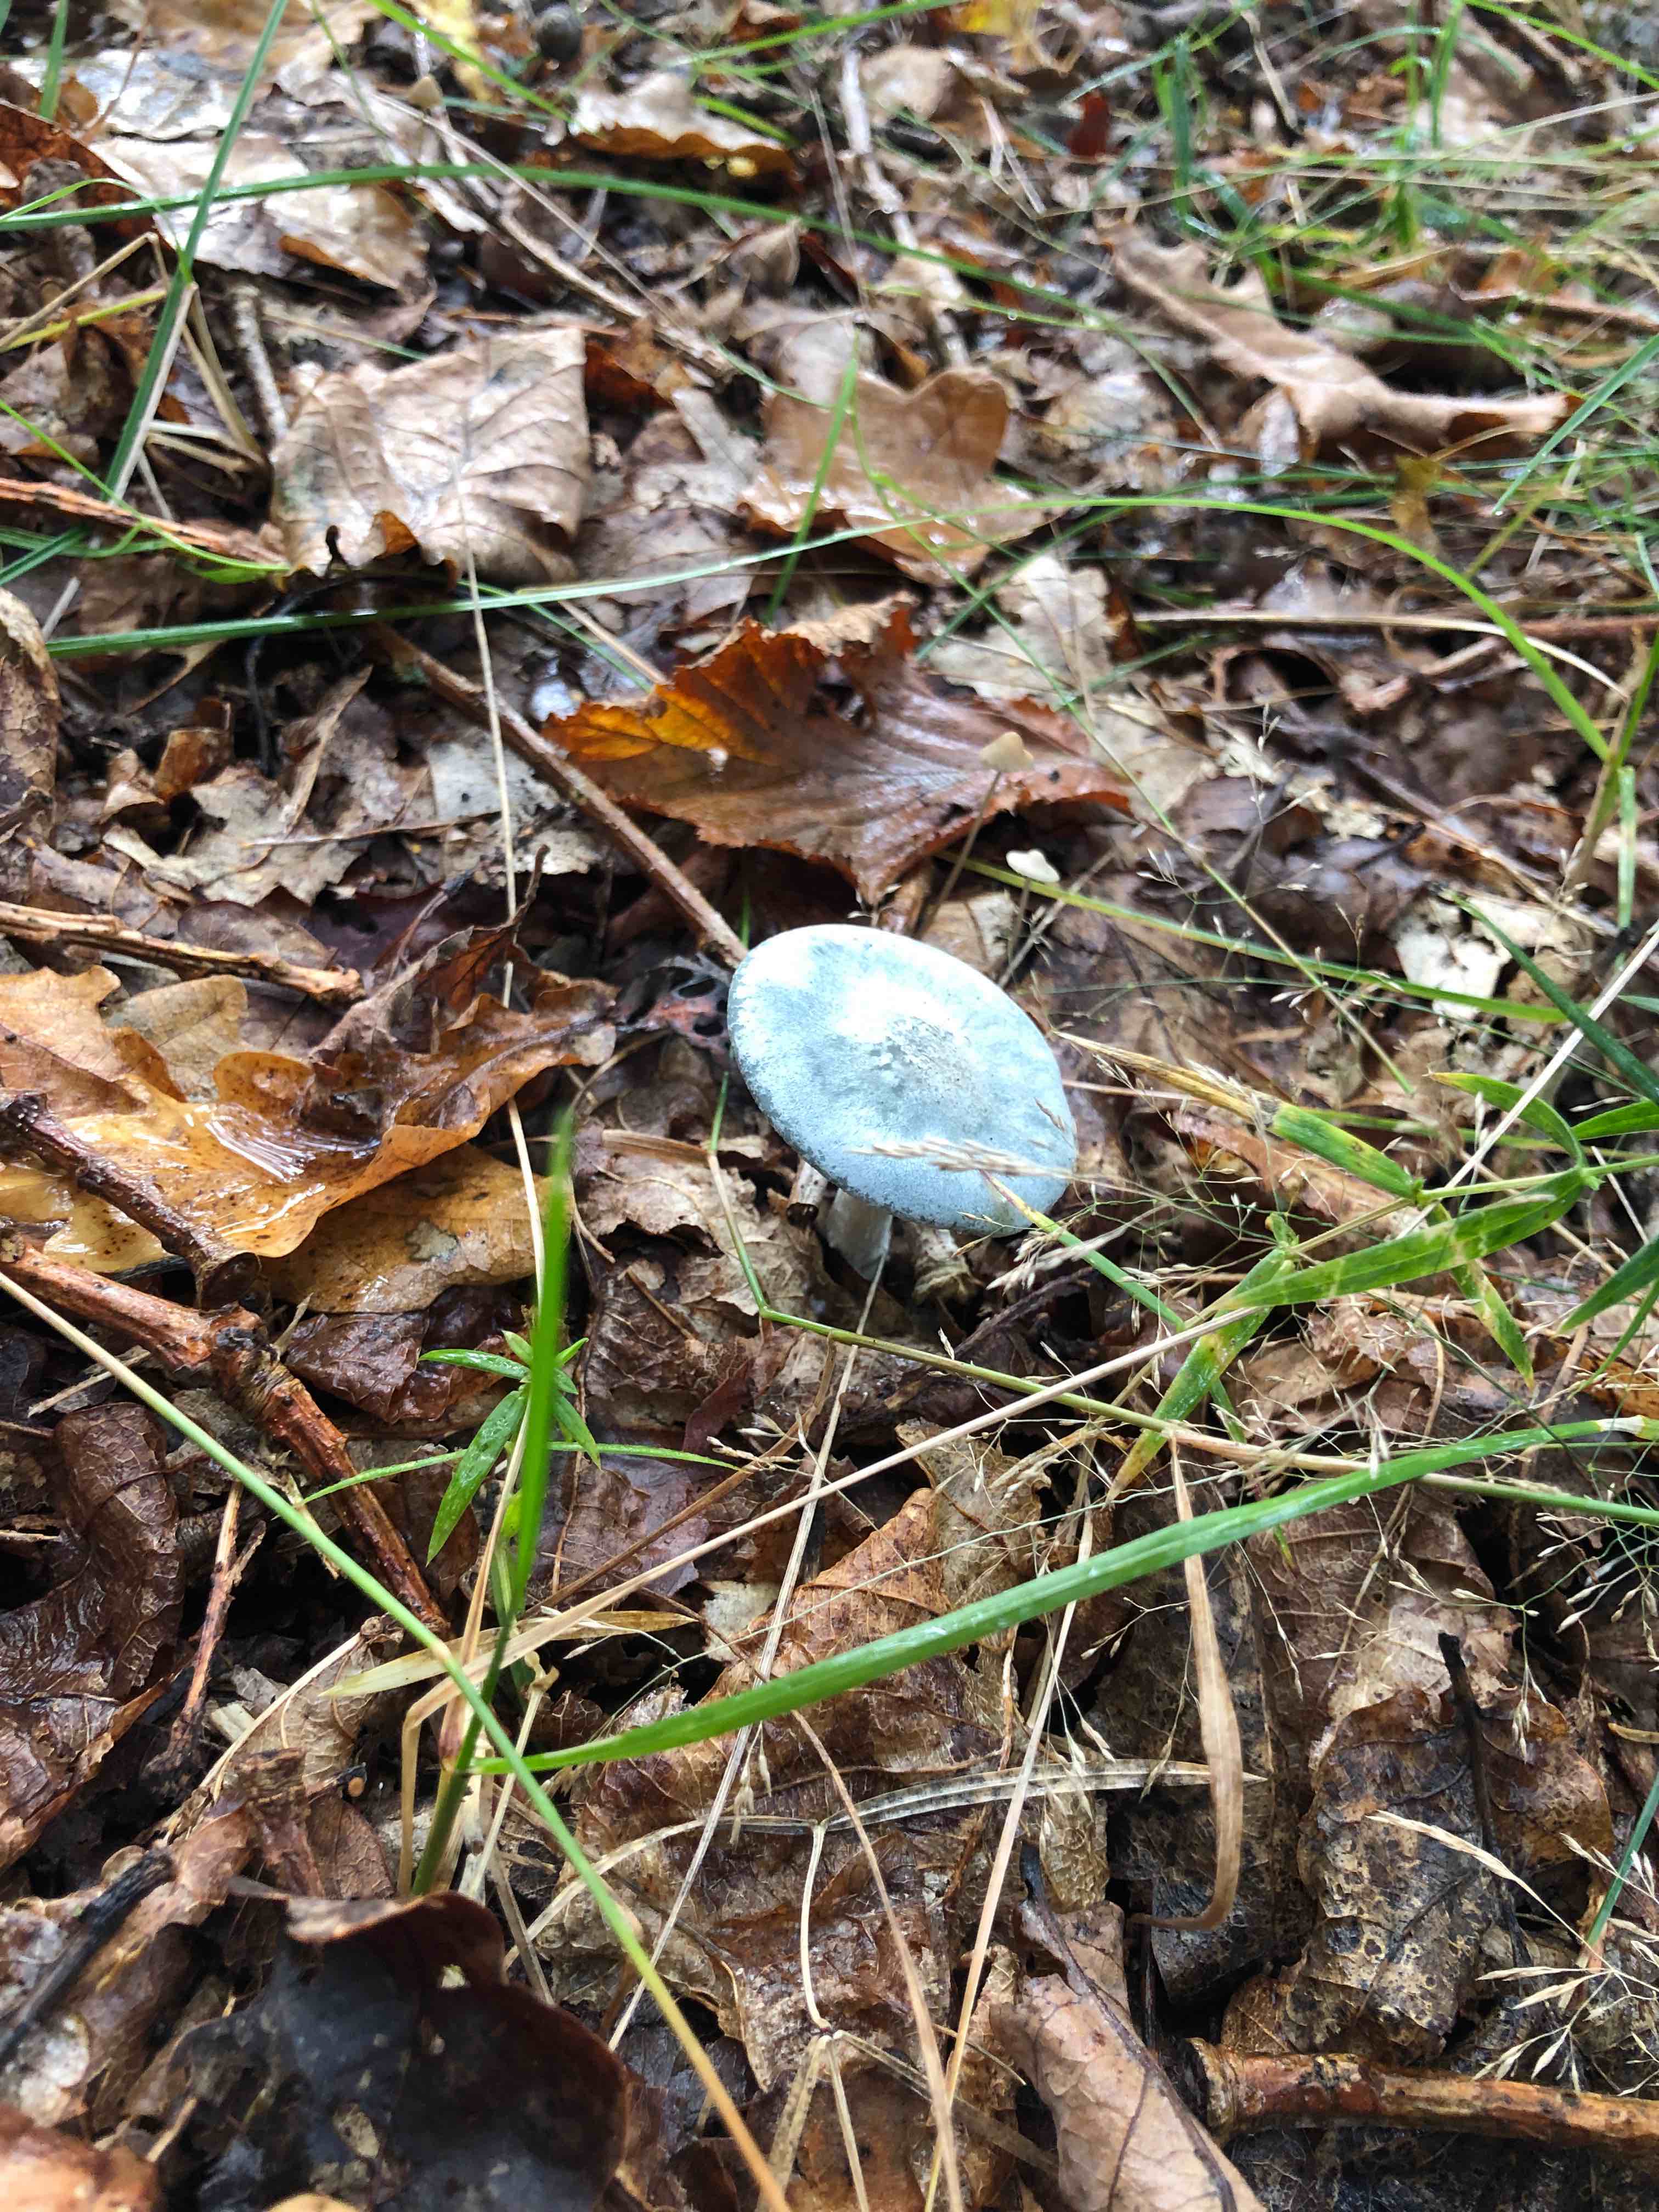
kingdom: Fungi
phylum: Basidiomycota
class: Agaricomycetes
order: Agaricales
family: Tricholomataceae
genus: Clitocybe
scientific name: Clitocybe odora
